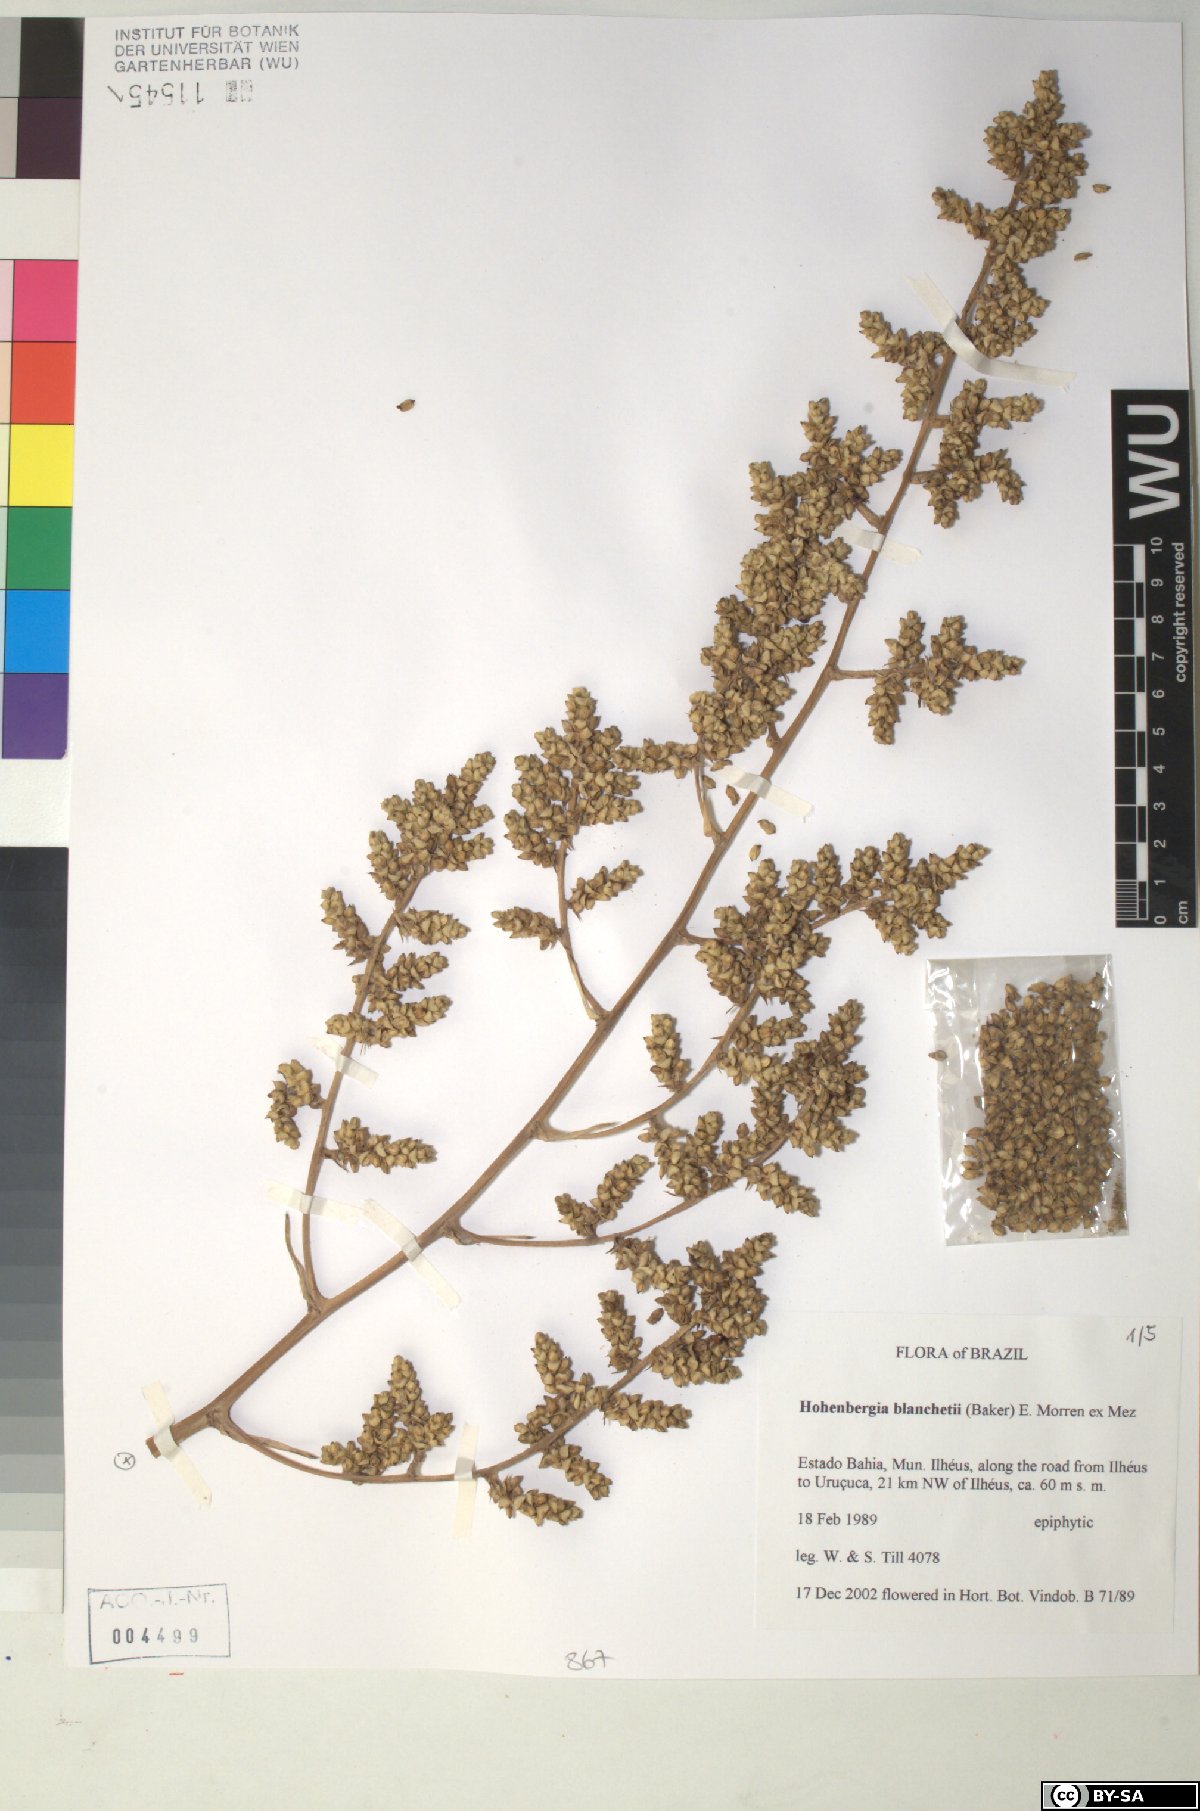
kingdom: Plantae
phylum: Tracheophyta
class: Liliopsida
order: Poales
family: Bromeliaceae
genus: Hohenbergia
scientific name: Hohenbergia blanchetii
